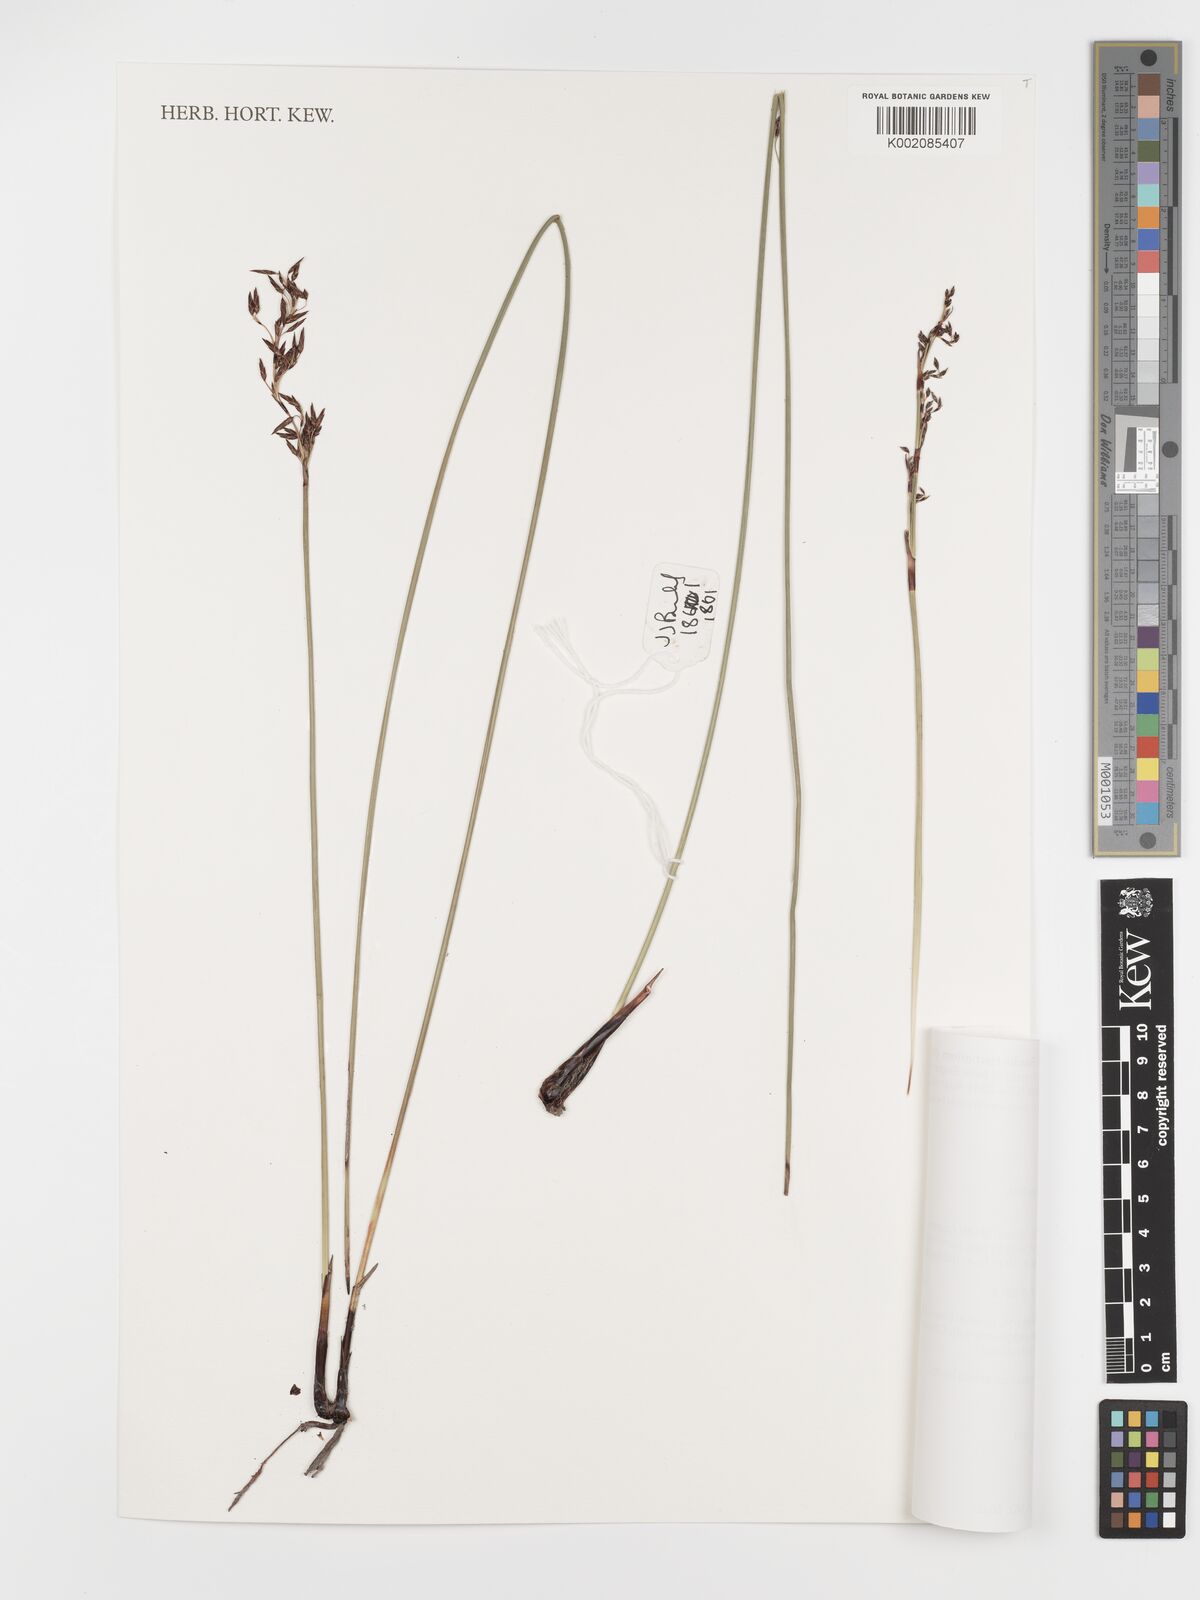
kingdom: Plantae
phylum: Tracheophyta
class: Liliopsida
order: Poales
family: Cyperaceae
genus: Schoenus
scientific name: Schoenus brevifolius
